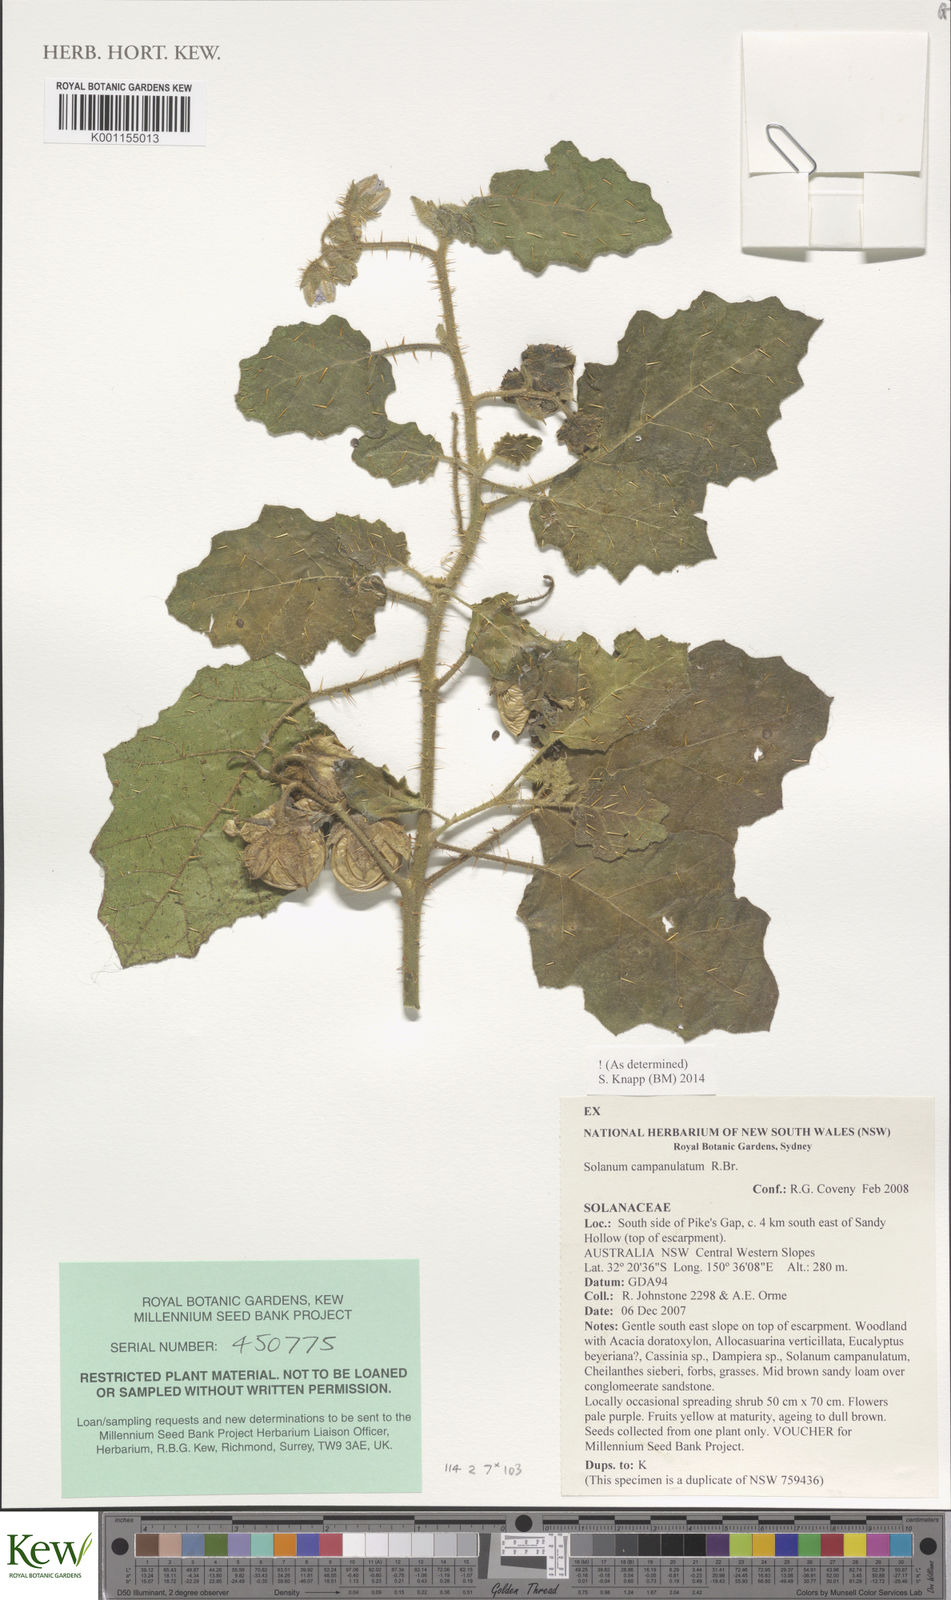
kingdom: Plantae
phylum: Tracheophyta
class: Magnoliopsida
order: Solanales
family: Solanaceae
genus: Solanum
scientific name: Solanum campanulatum
